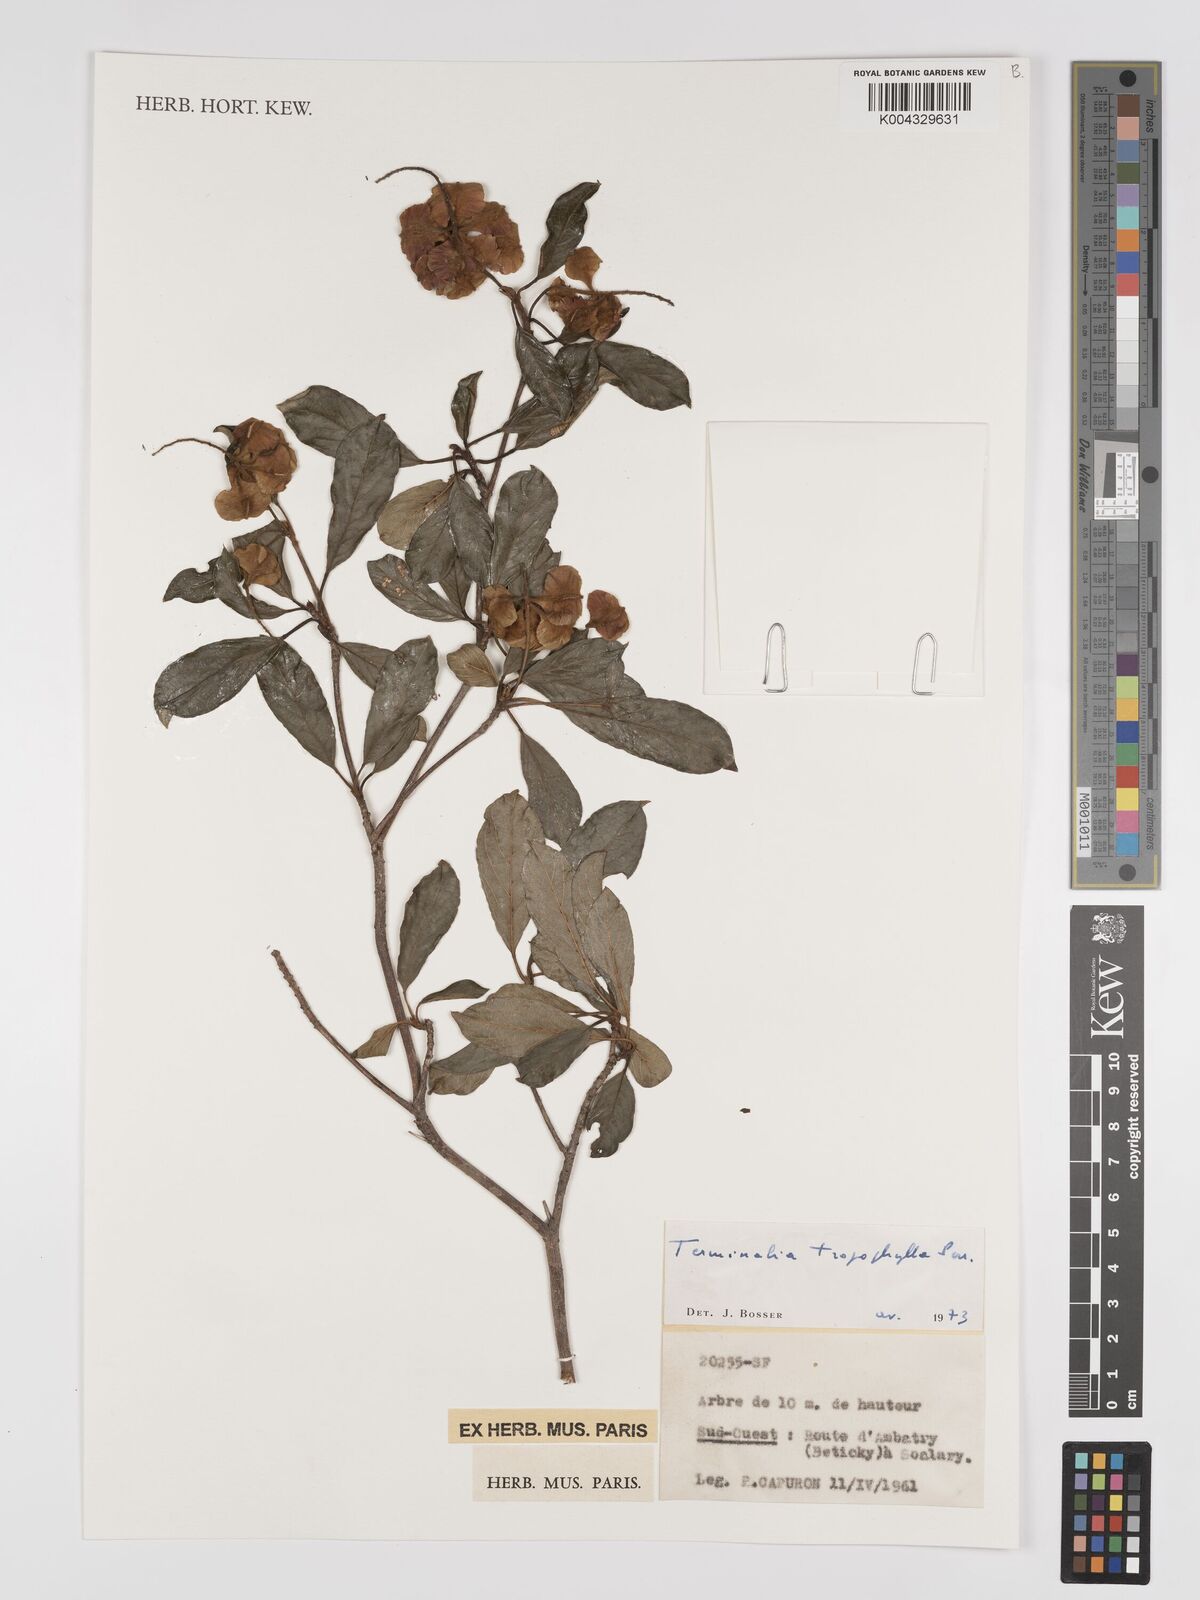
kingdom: Plantae
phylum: Tracheophyta
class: Magnoliopsida
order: Myrtales
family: Combretaceae
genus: Terminalia
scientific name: Terminalia tropophylla
